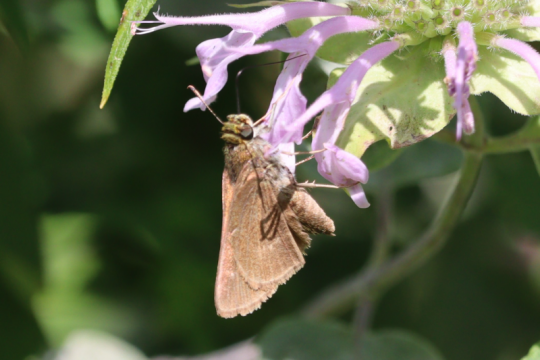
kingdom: Animalia
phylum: Arthropoda
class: Insecta
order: Lepidoptera
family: Hesperiidae
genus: Euphyes
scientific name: Euphyes vestris
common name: Dun Skipper
